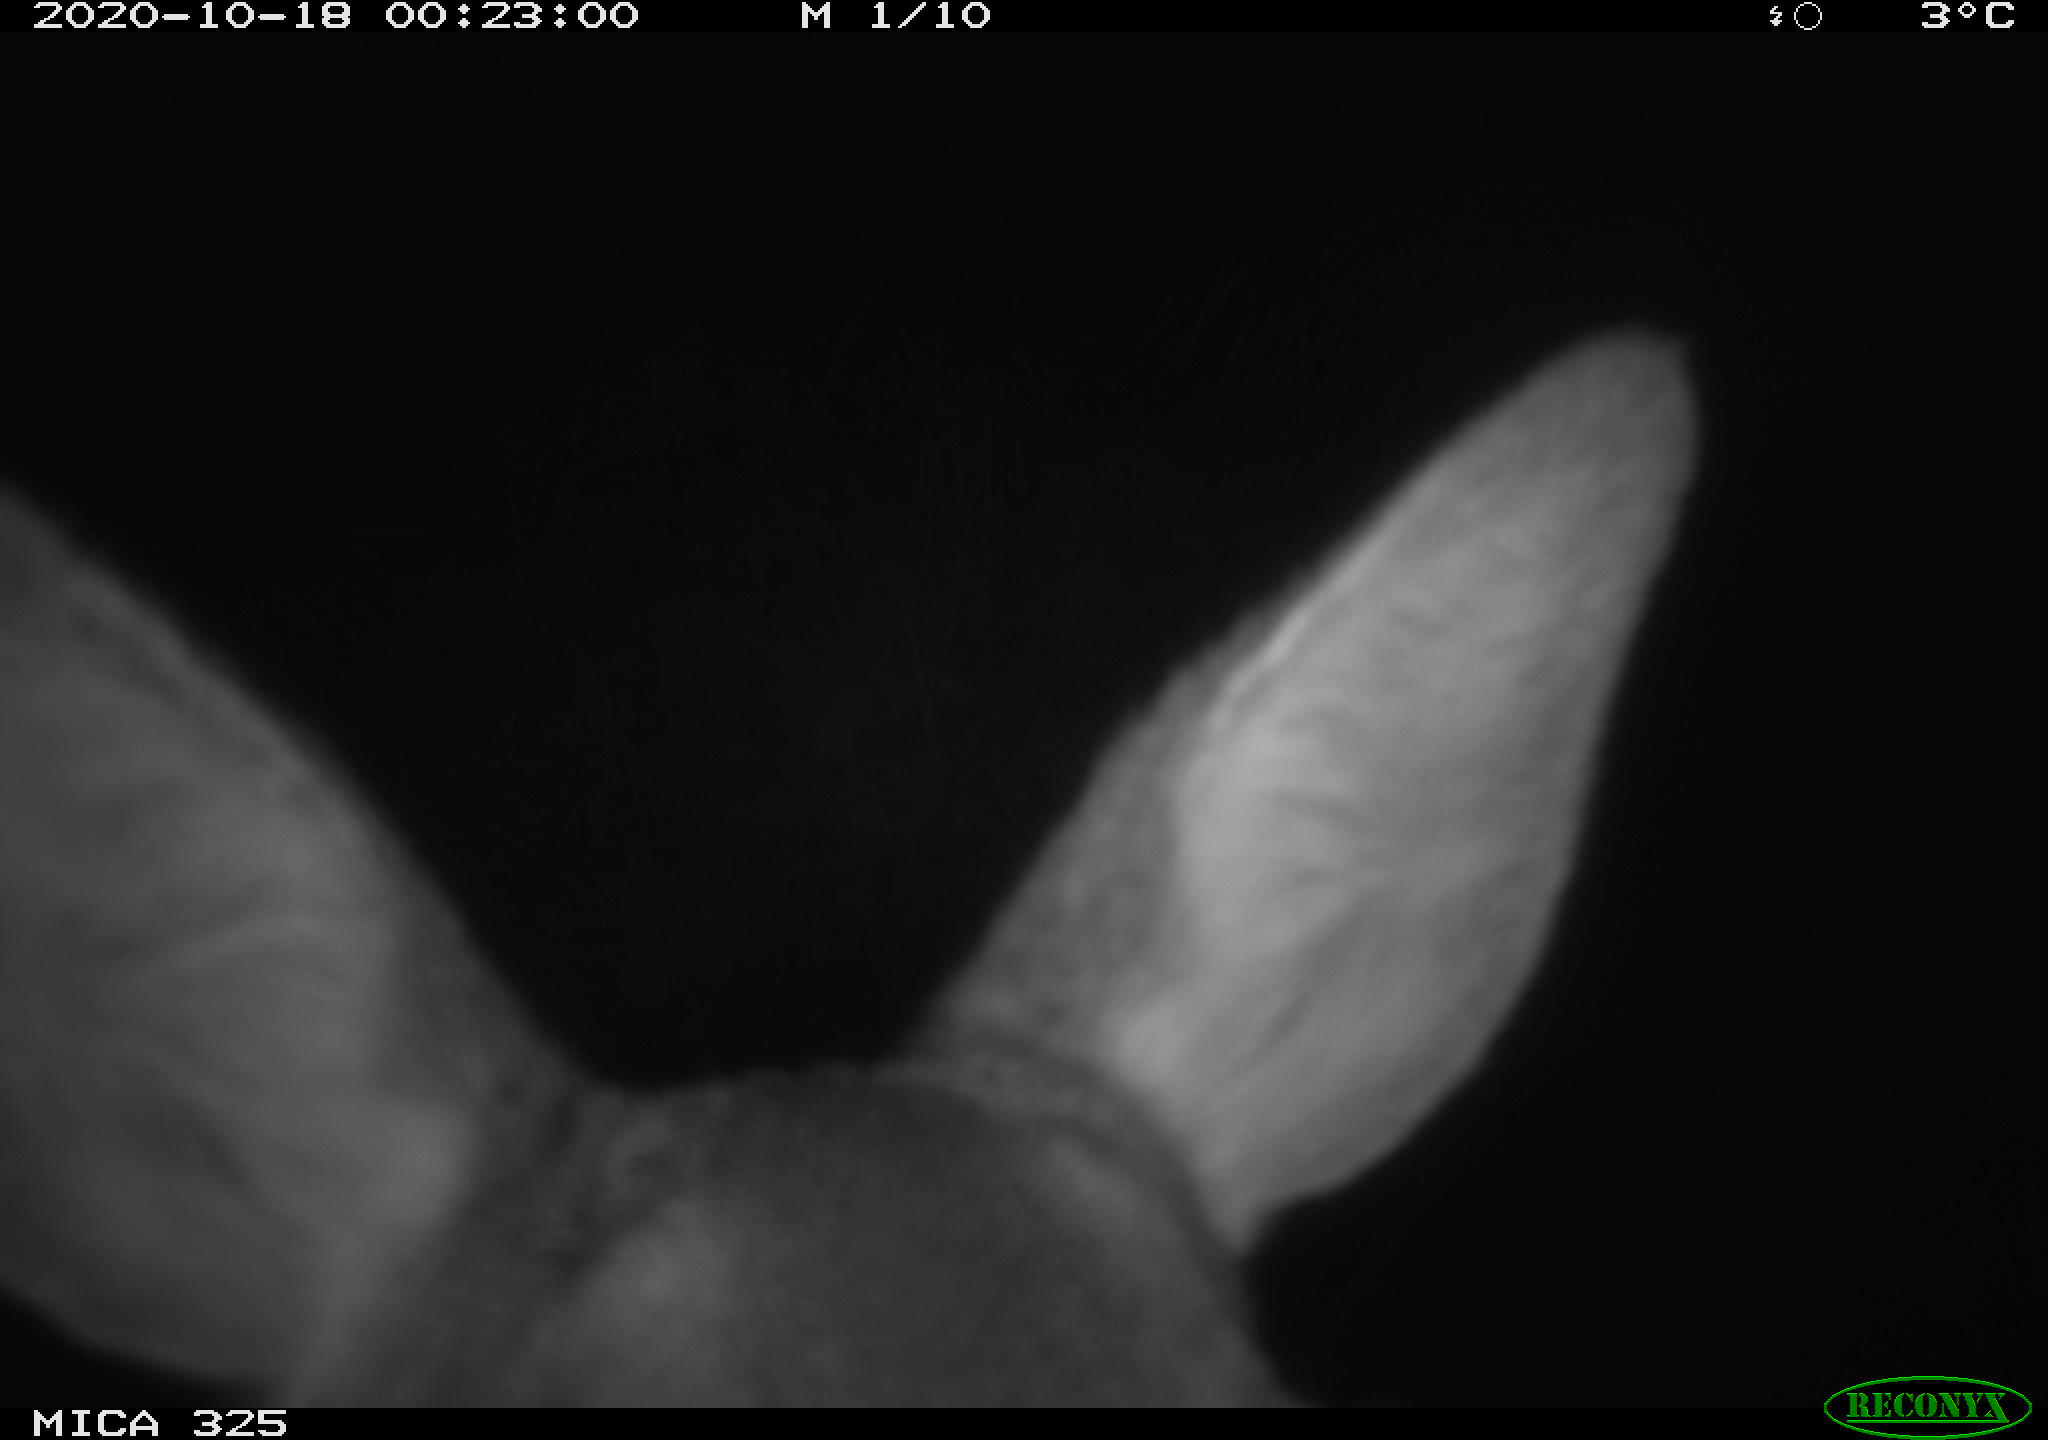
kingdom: Animalia
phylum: Chordata
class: Mammalia
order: Artiodactyla
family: Cervidae
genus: Capreolus
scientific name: Capreolus capreolus
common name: Western roe deer
